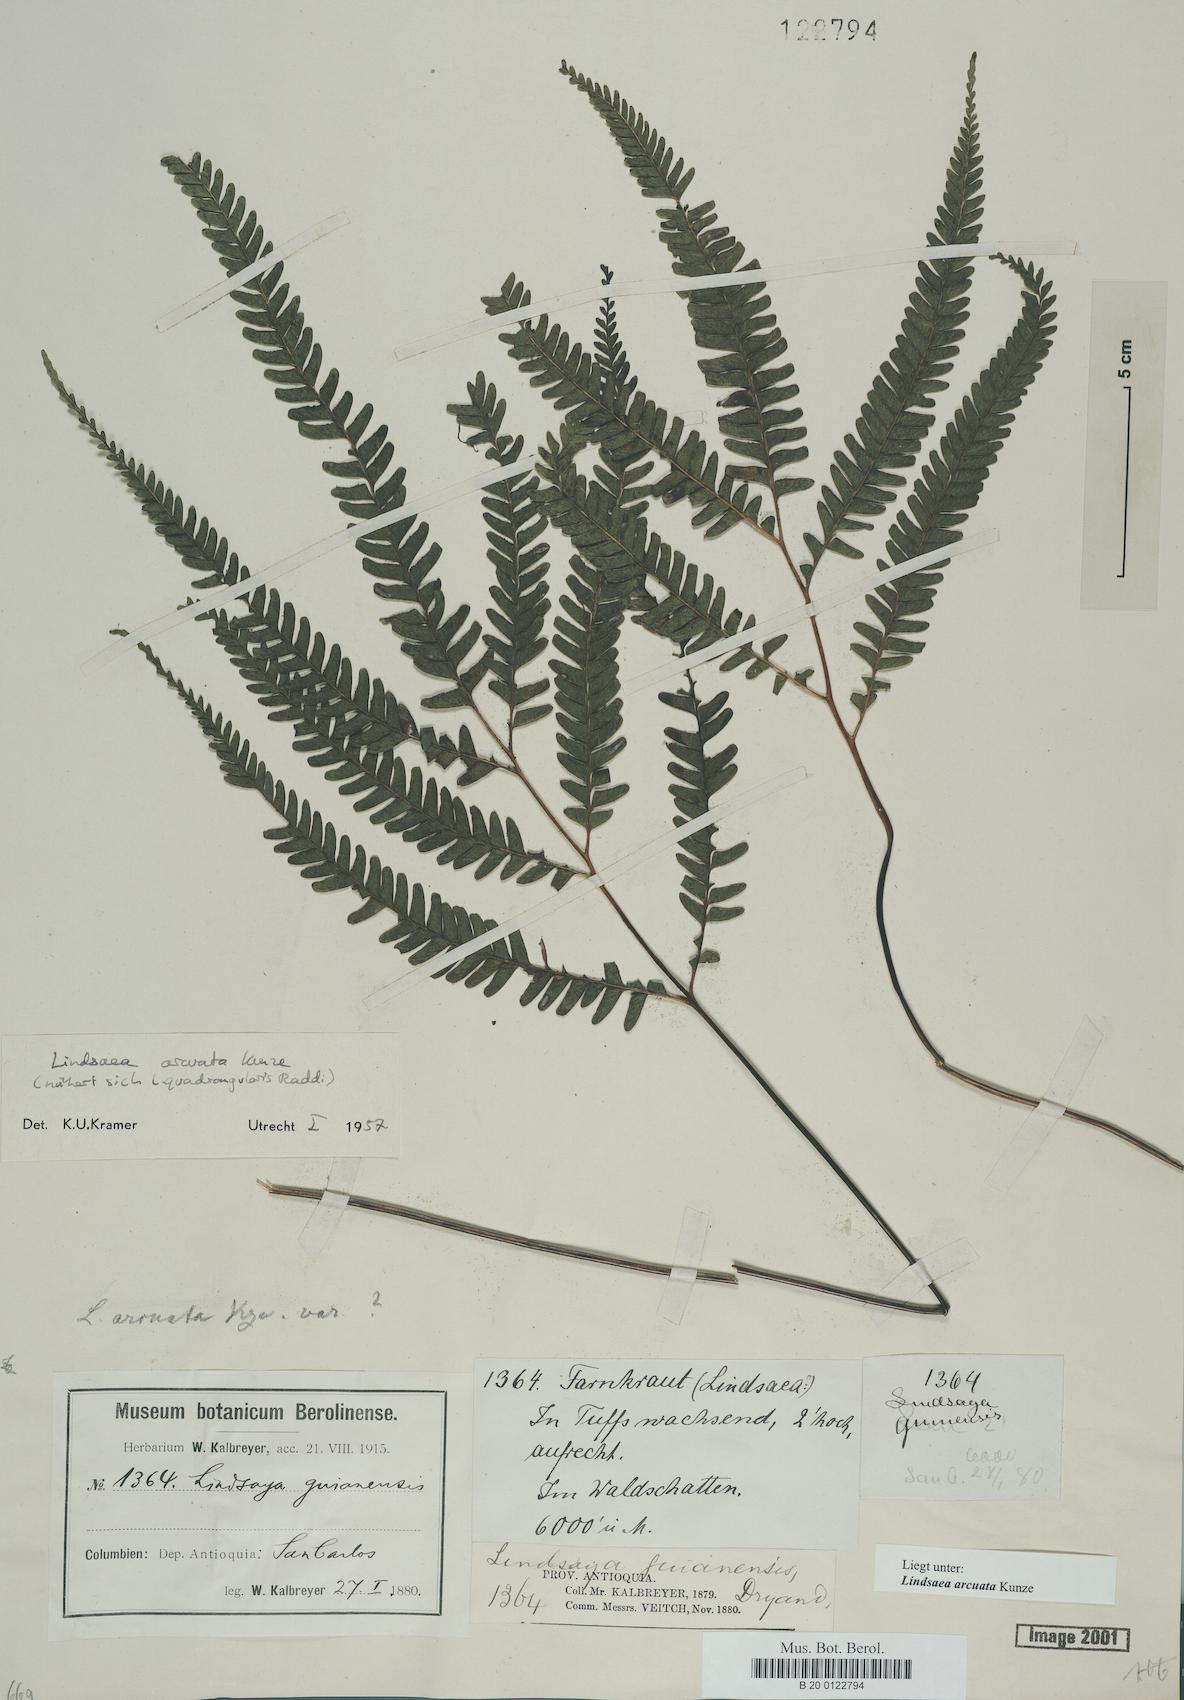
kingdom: Plantae
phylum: Tracheophyta
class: Polypodiopsida
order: Polypodiales
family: Lindsaeaceae
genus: Lindsaea
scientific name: Lindsaea arcuata
